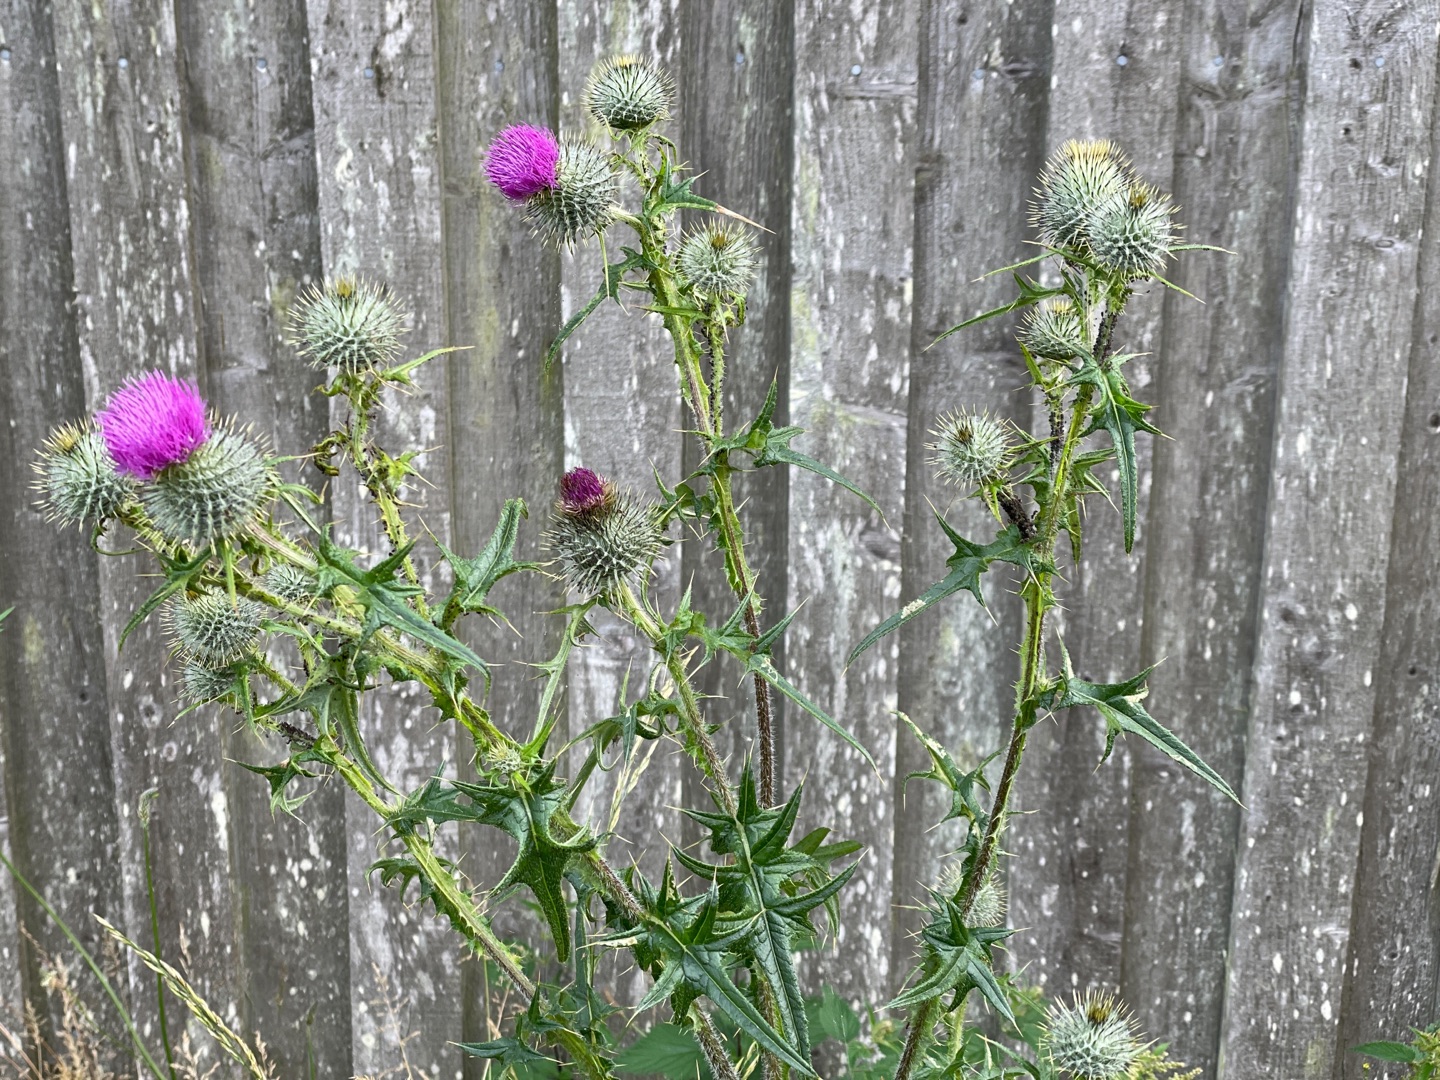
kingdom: Plantae
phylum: Tracheophyta
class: Magnoliopsida
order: Asterales
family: Asteraceae
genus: Cirsium
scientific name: Cirsium vulgare
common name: Horse-tidsel
